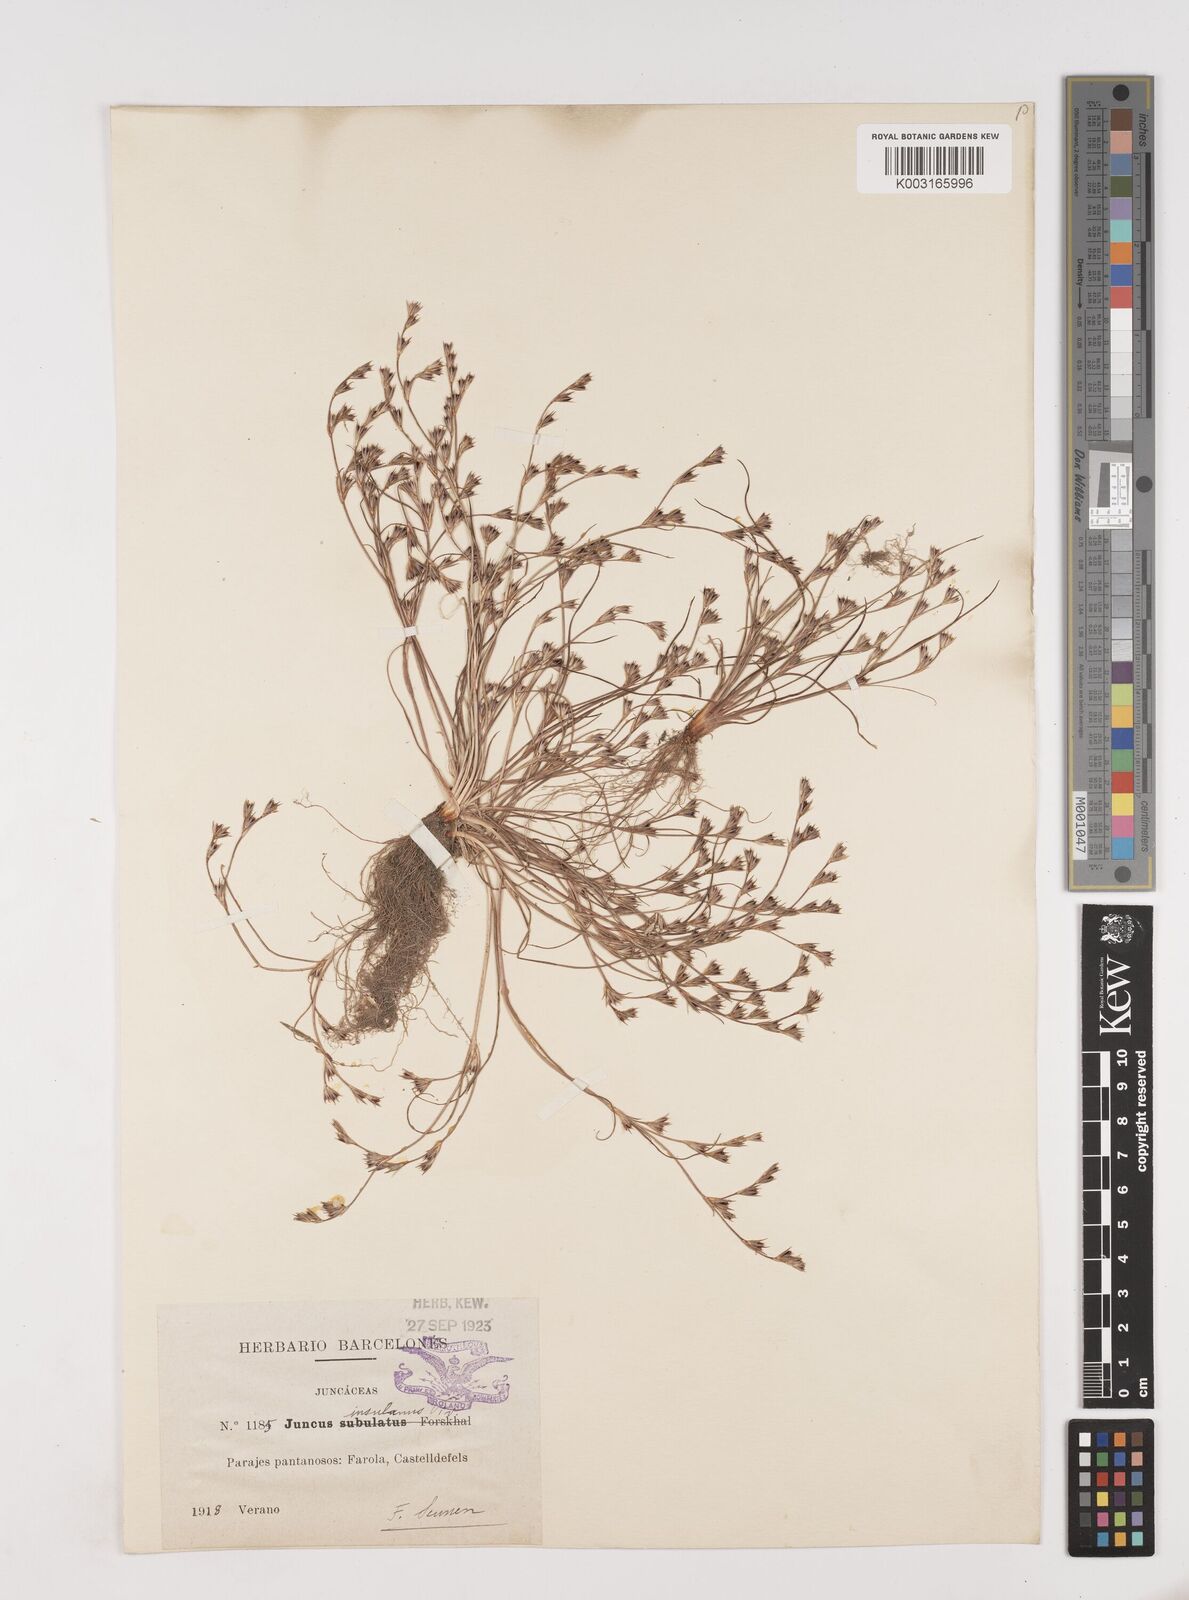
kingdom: Plantae
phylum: Tracheophyta
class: Liliopsida
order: Poales
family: Juncaceae
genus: Juncus
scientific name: Juncus bufonius
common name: Toad rush
